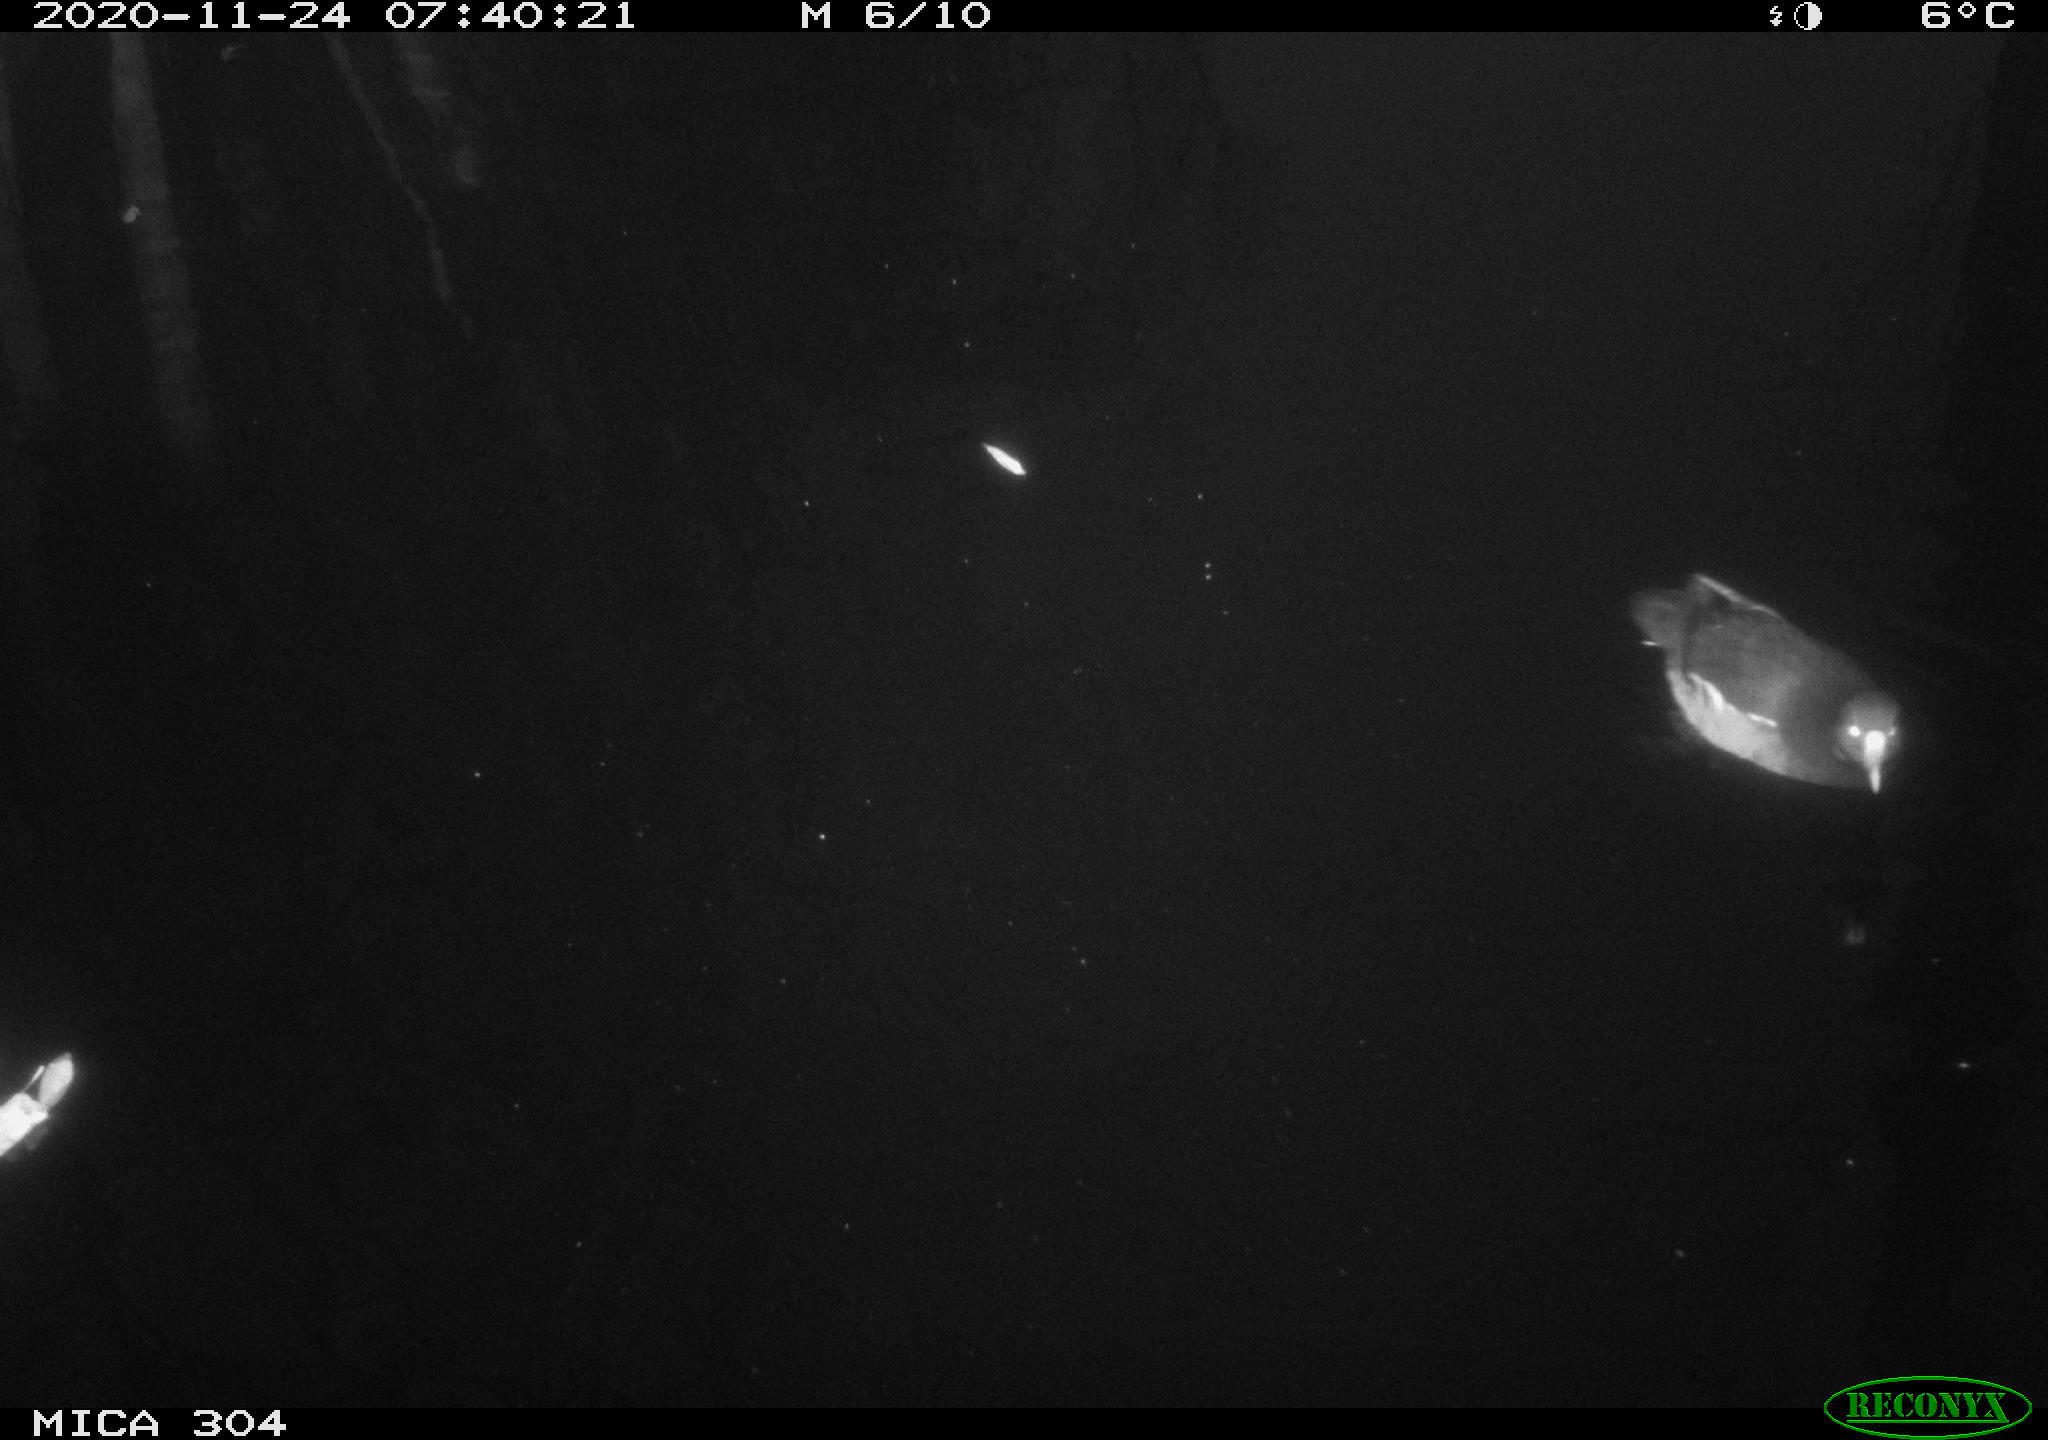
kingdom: Animalia
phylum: Chordata
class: Aves
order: Gruiformes
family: Rallidae
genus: Gallinula
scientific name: Gallinula chloropus
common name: Common moorhen
